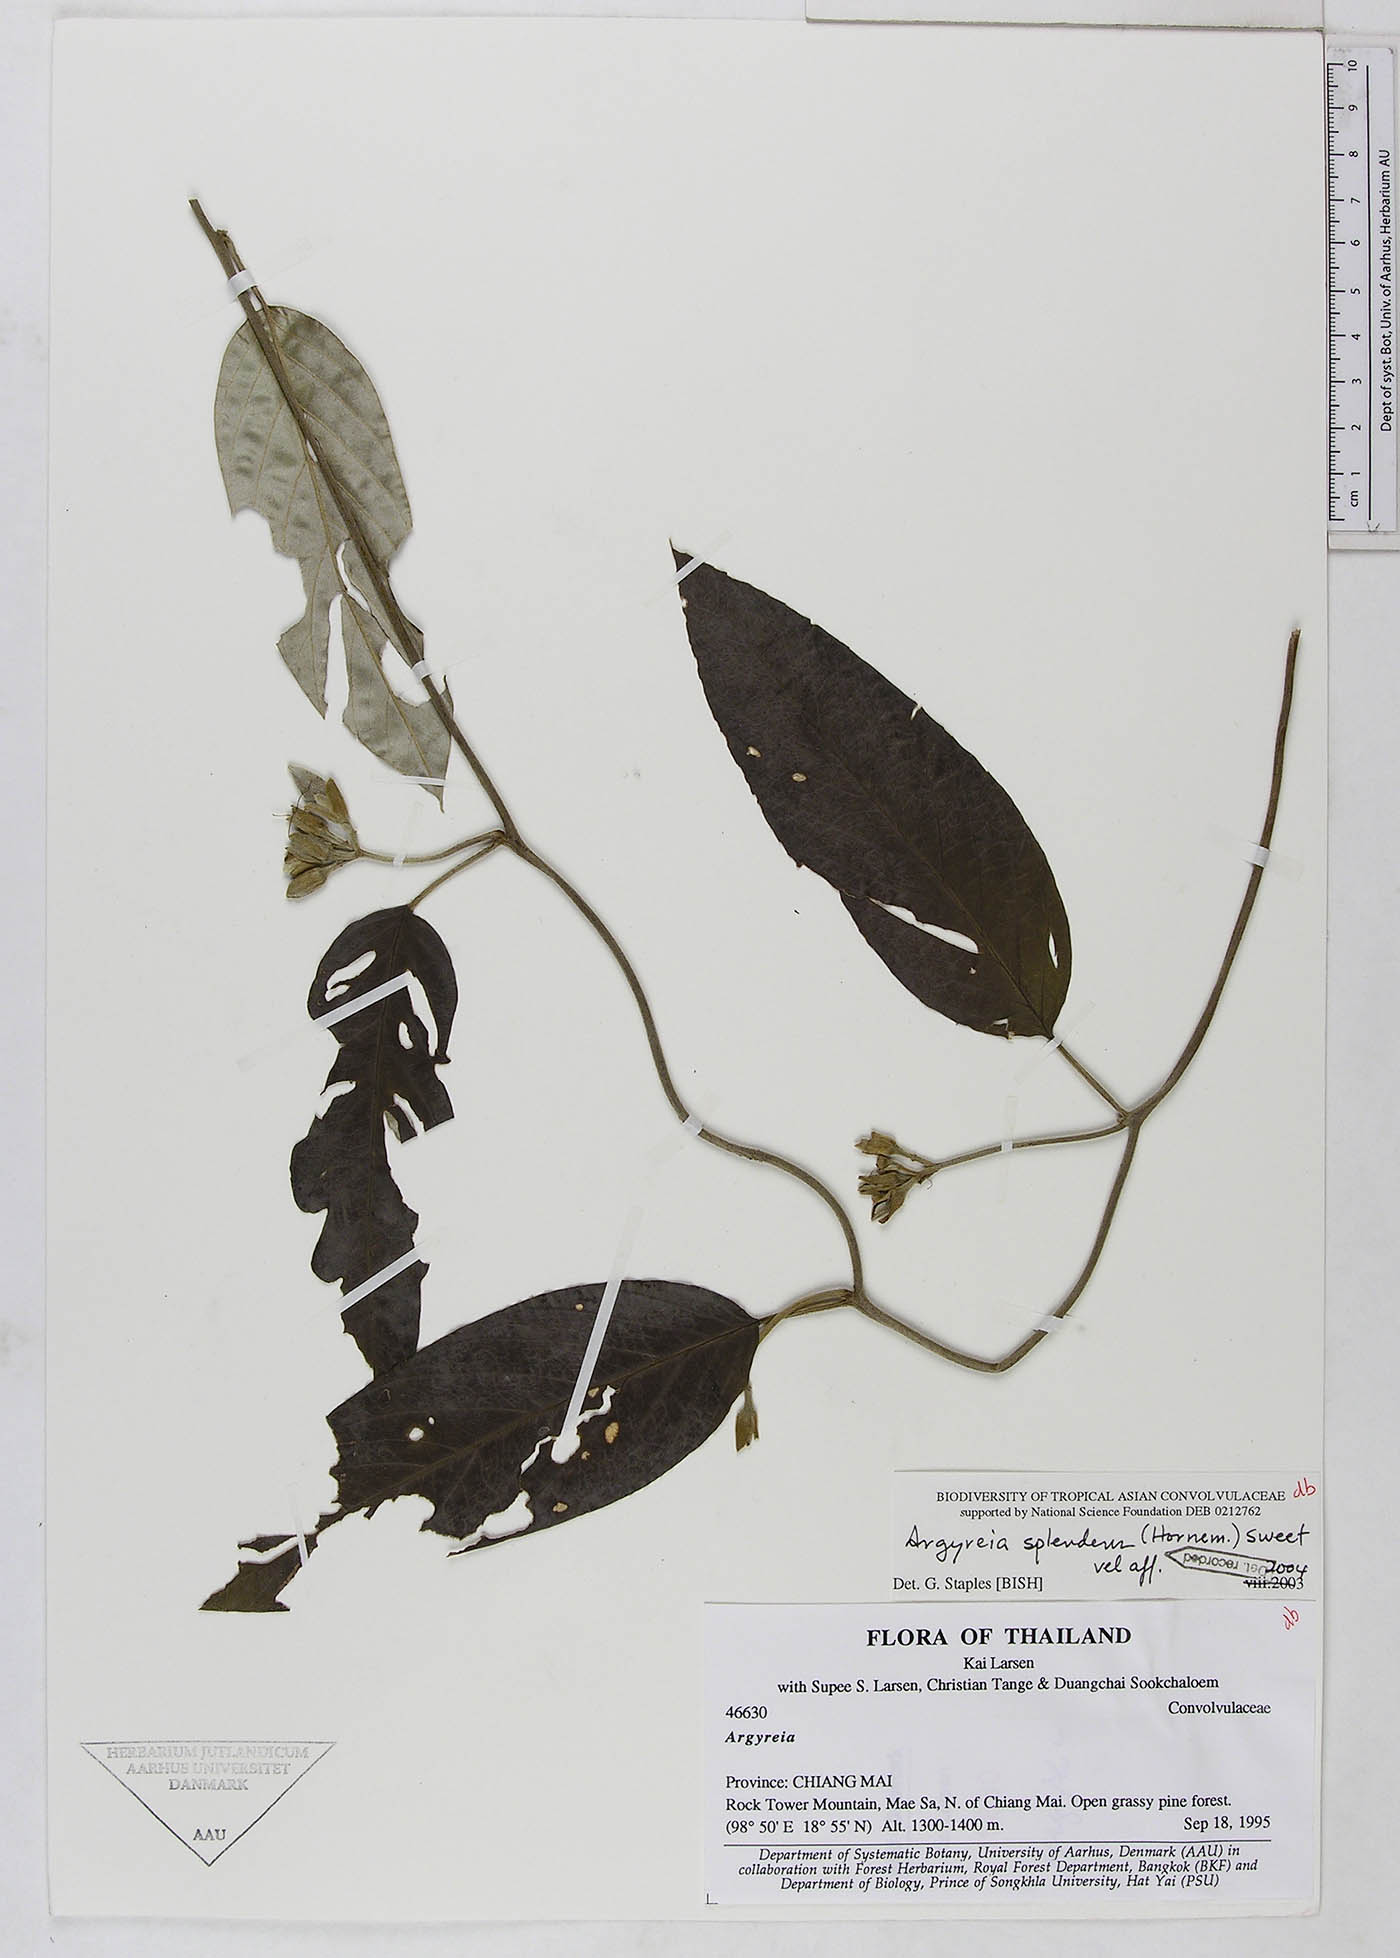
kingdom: Plantae
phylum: Tracheophyta
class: Magnoliopsida
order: Solanales
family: Convolvulaceae
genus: Argyreia
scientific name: Argyreia splendens
